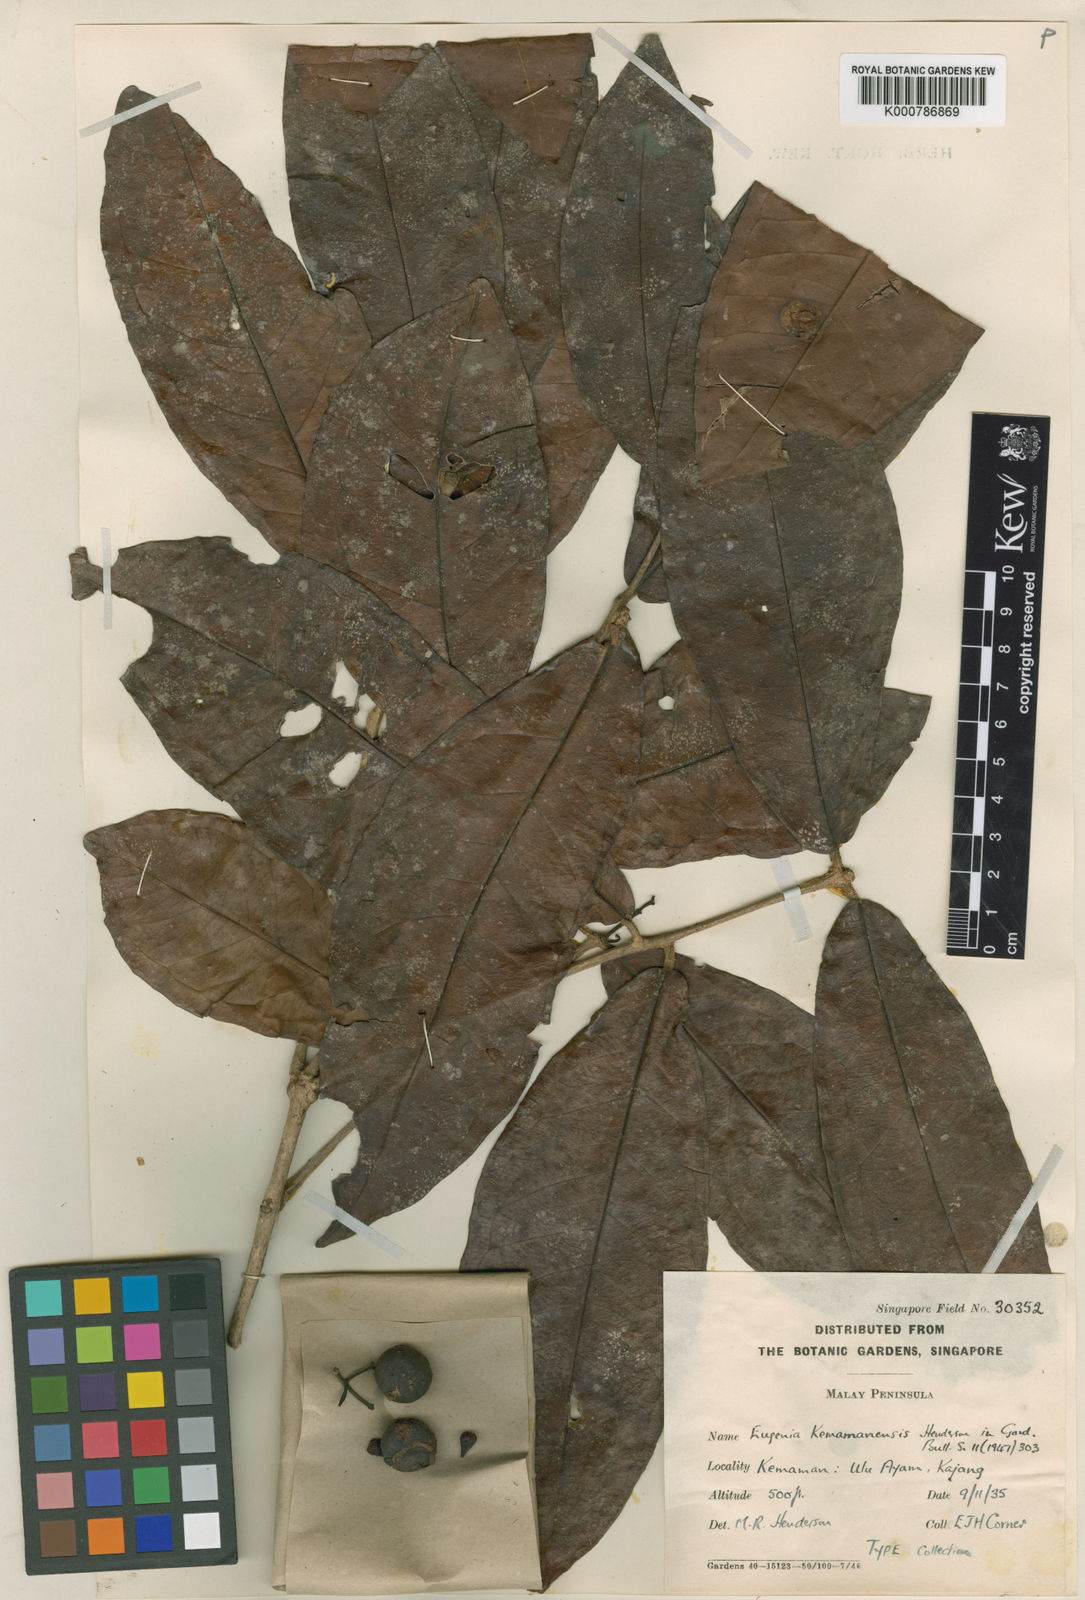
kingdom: Plantae
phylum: Tracheophyta
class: Magnoliopsida
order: Myrtales
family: Myrtaceae
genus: Syzygium
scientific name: Syzygium kemamanense
